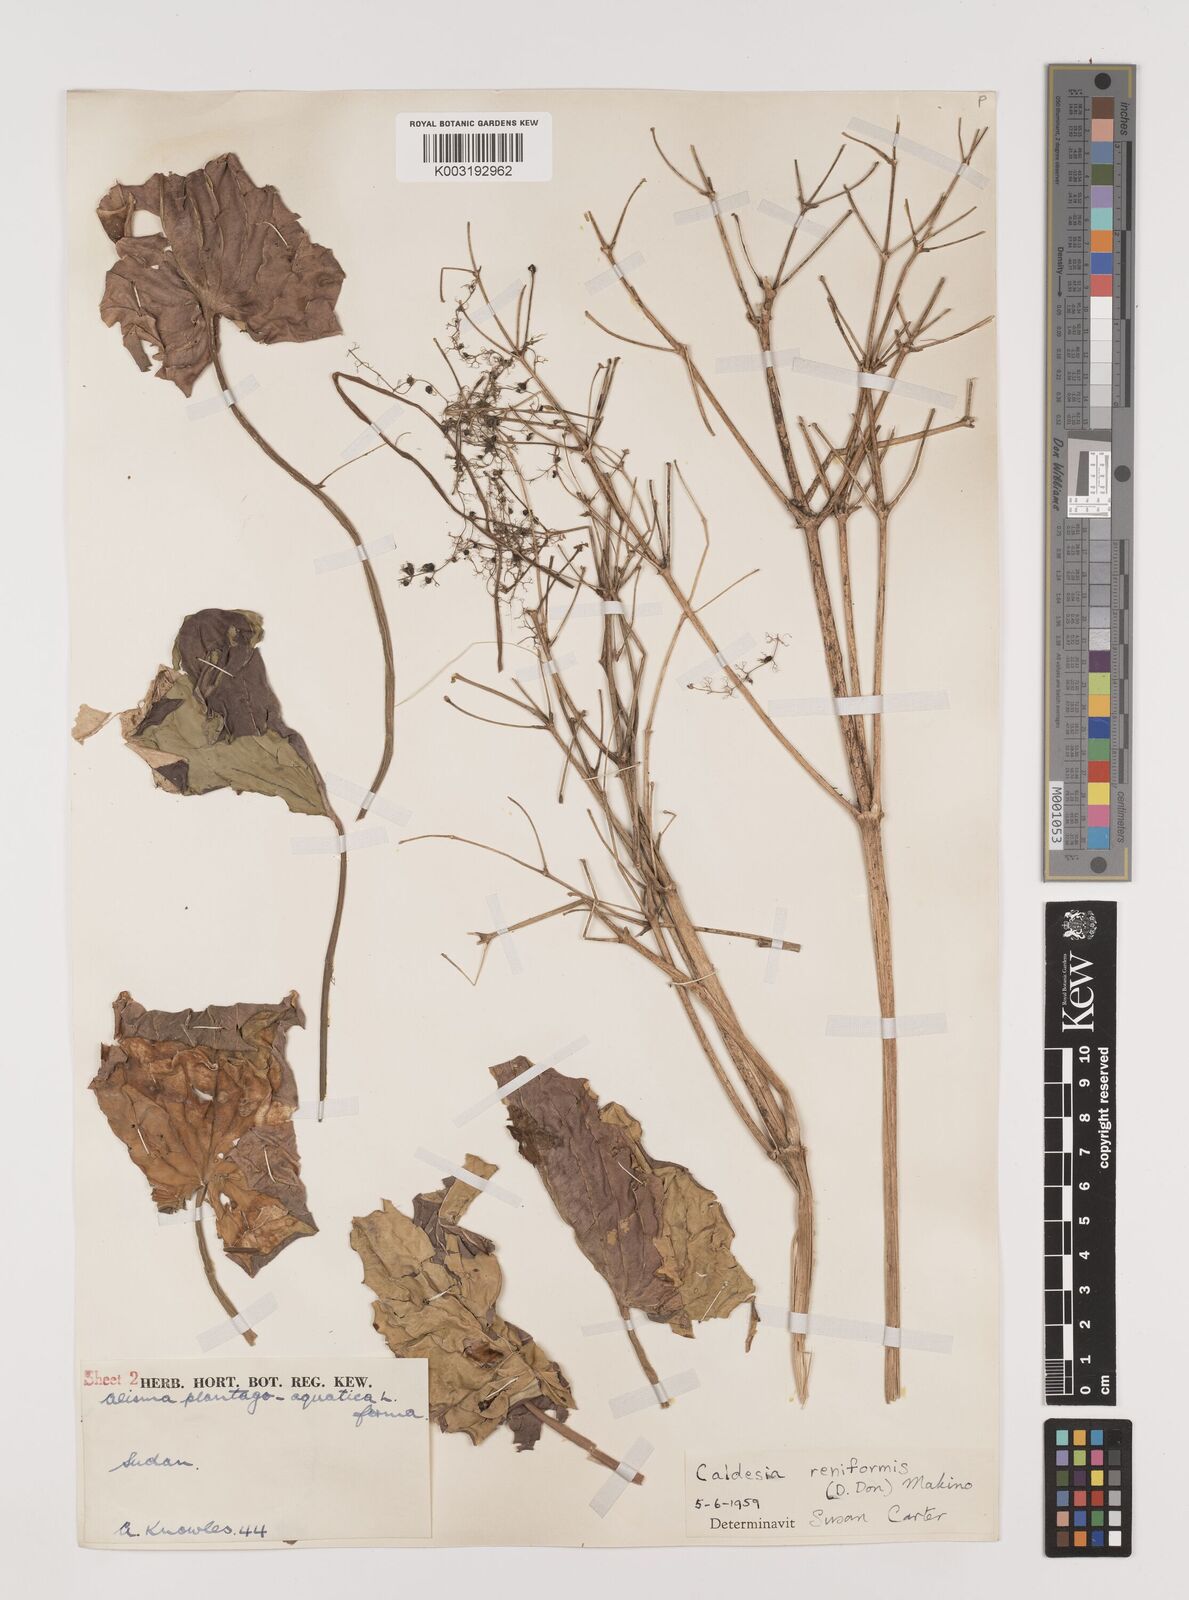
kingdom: Plantae
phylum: Tracheophyta
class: Liliopsida
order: Alismatales
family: Alismataceae
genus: Caldesia
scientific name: Caldesia parnassifolia
